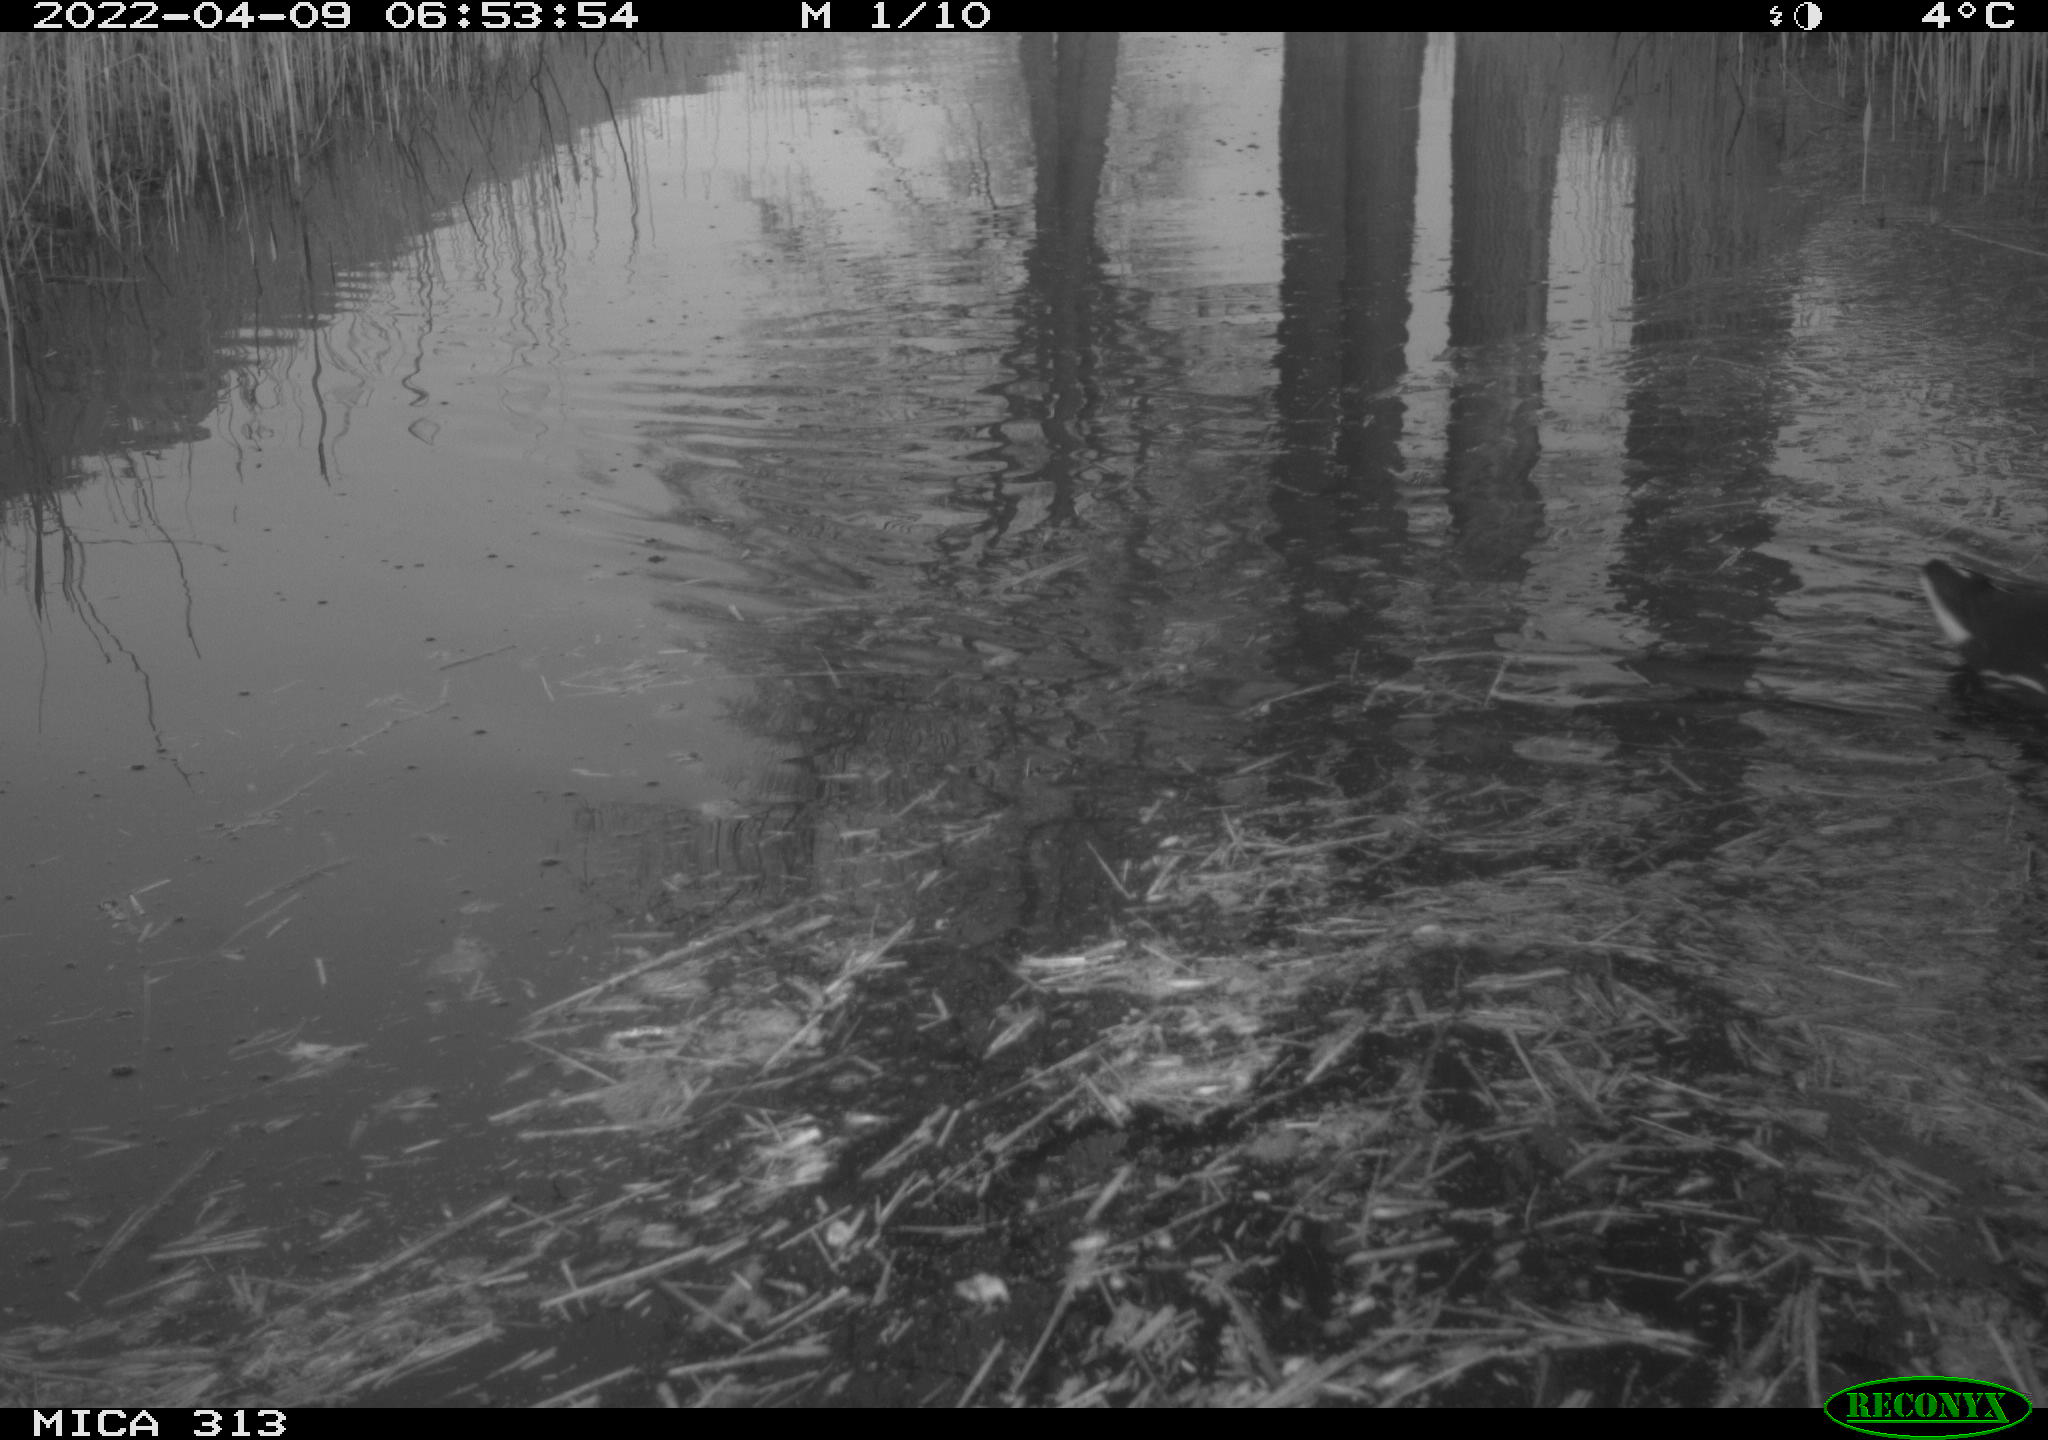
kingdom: Animalia
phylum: Chordata
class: Aves
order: Gruiformes
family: Rallidae
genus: Gallinula
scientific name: Gallinula chloropus
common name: Common moorhen
